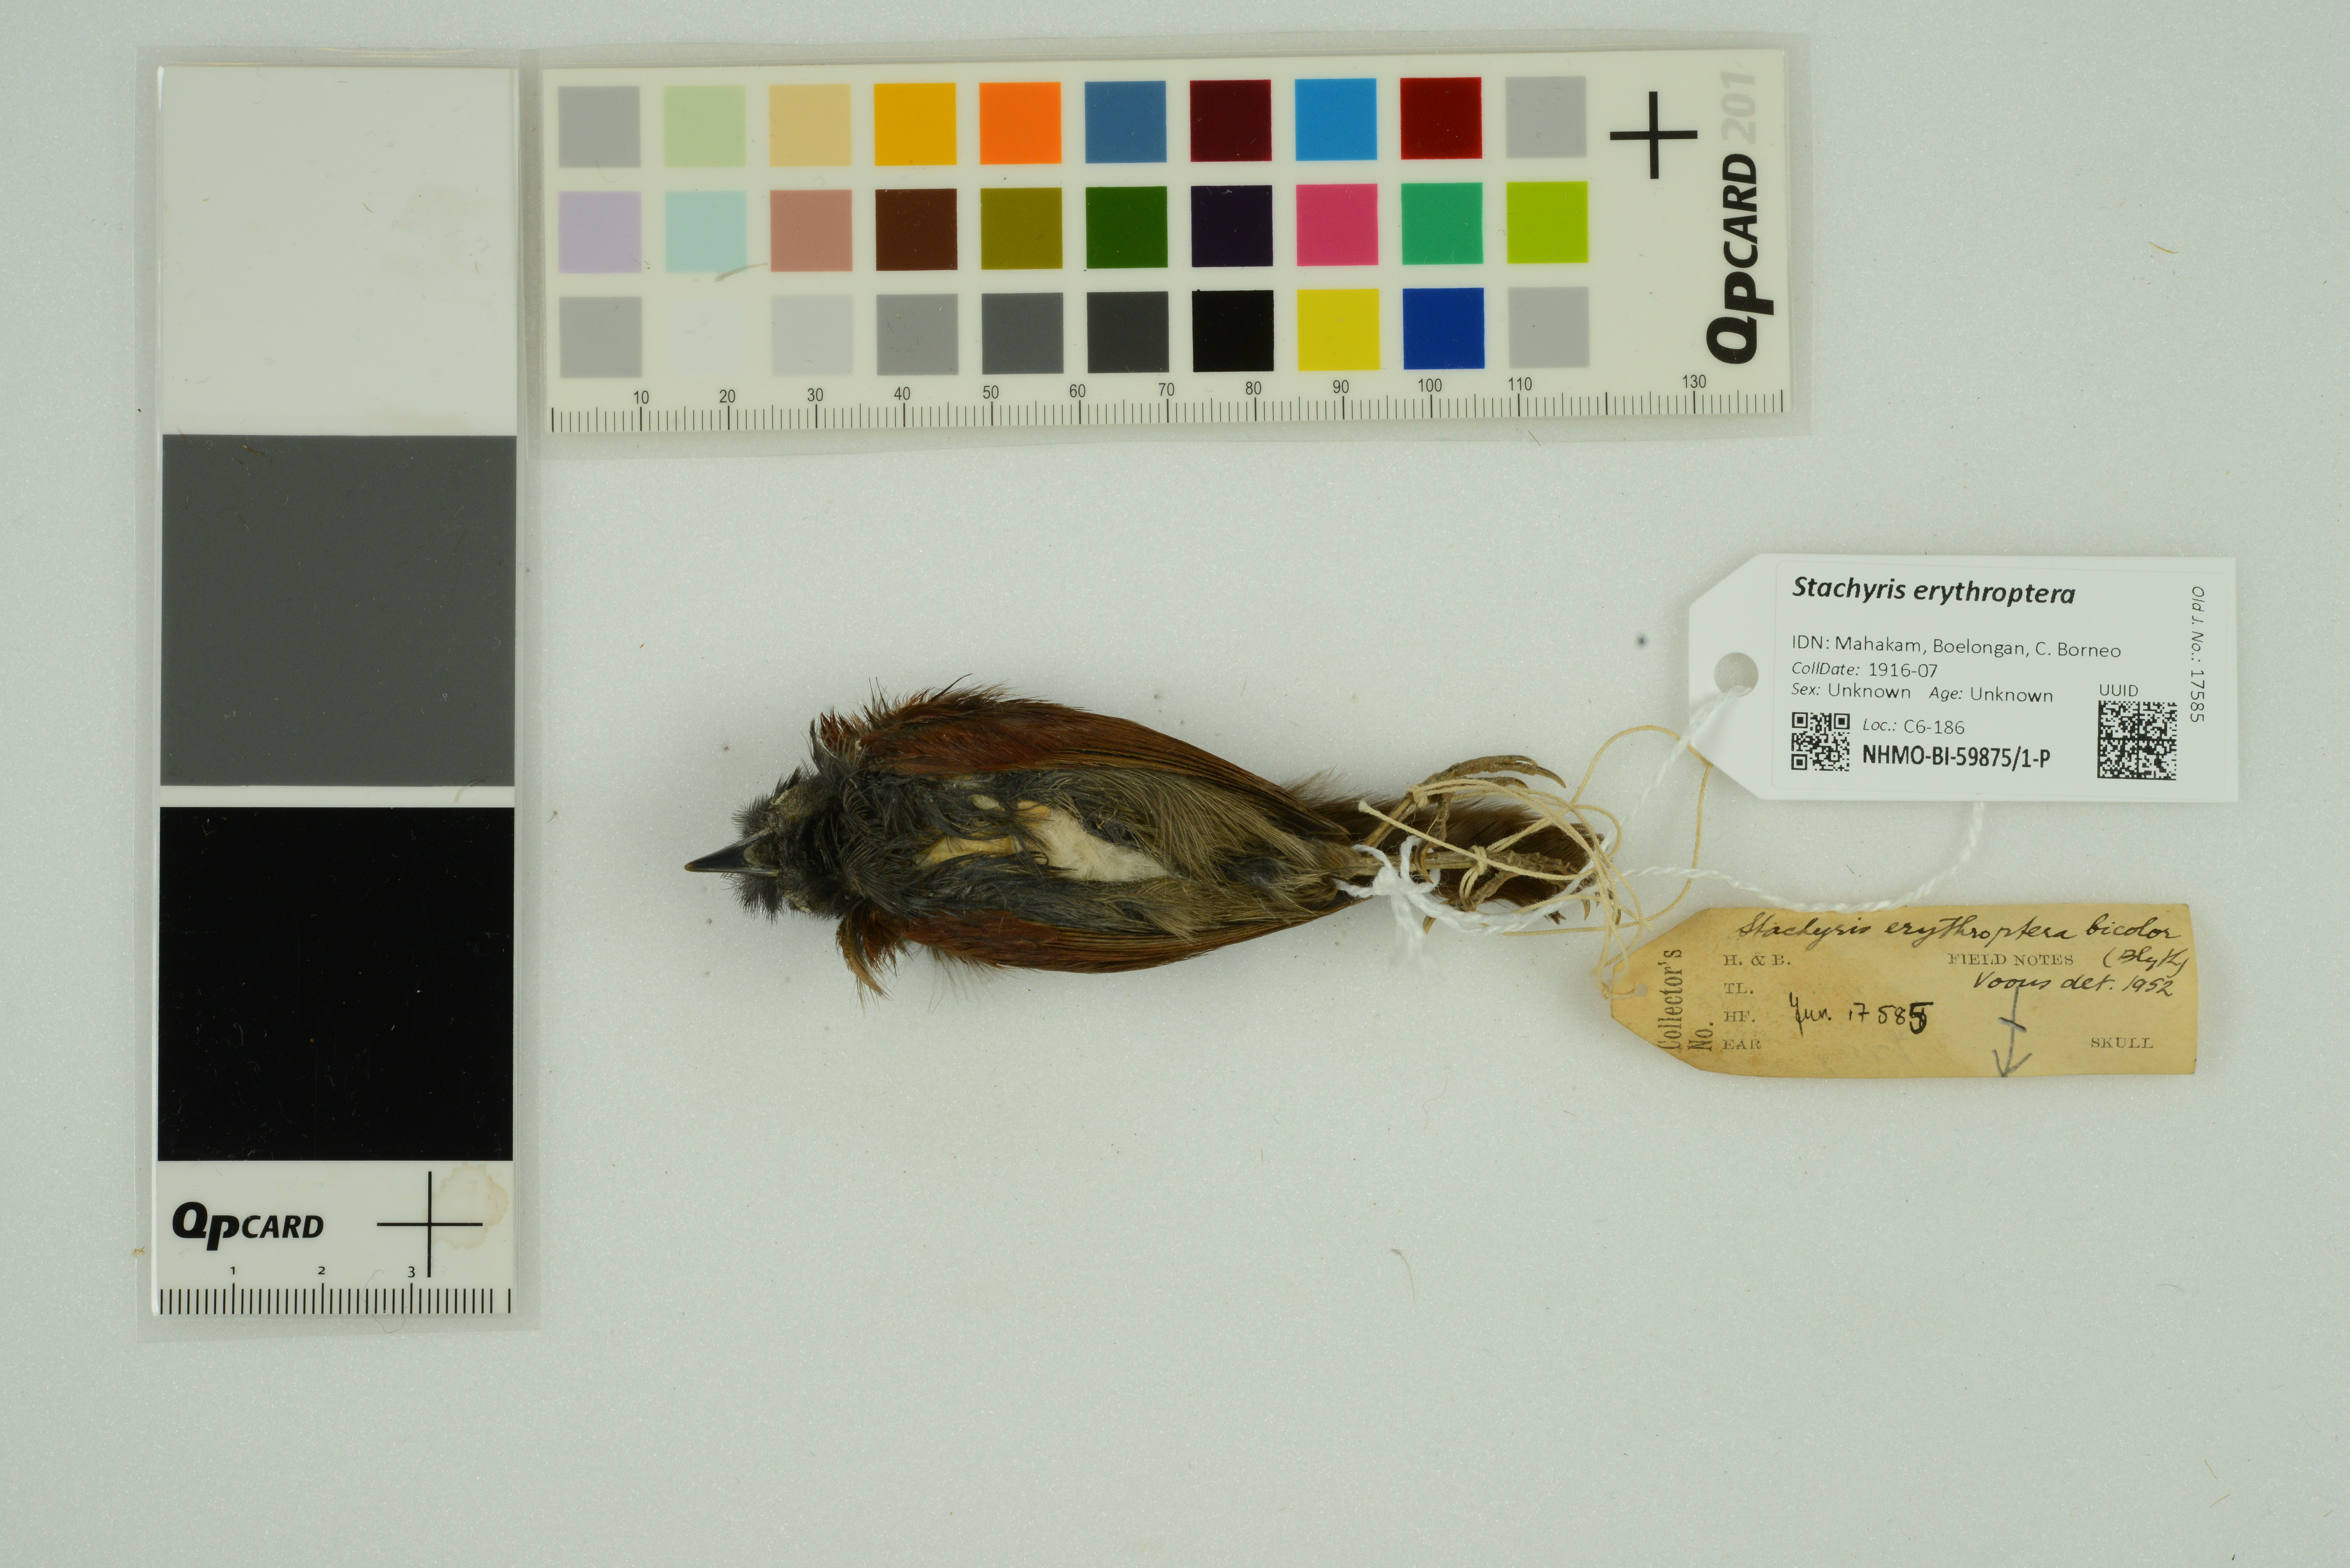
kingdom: Animalia
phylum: Chordata
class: Aves
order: Passeriformes
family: Timaliidae
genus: Stachyris
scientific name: Stachyris erythroptera
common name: Chestnut-winged babbler
